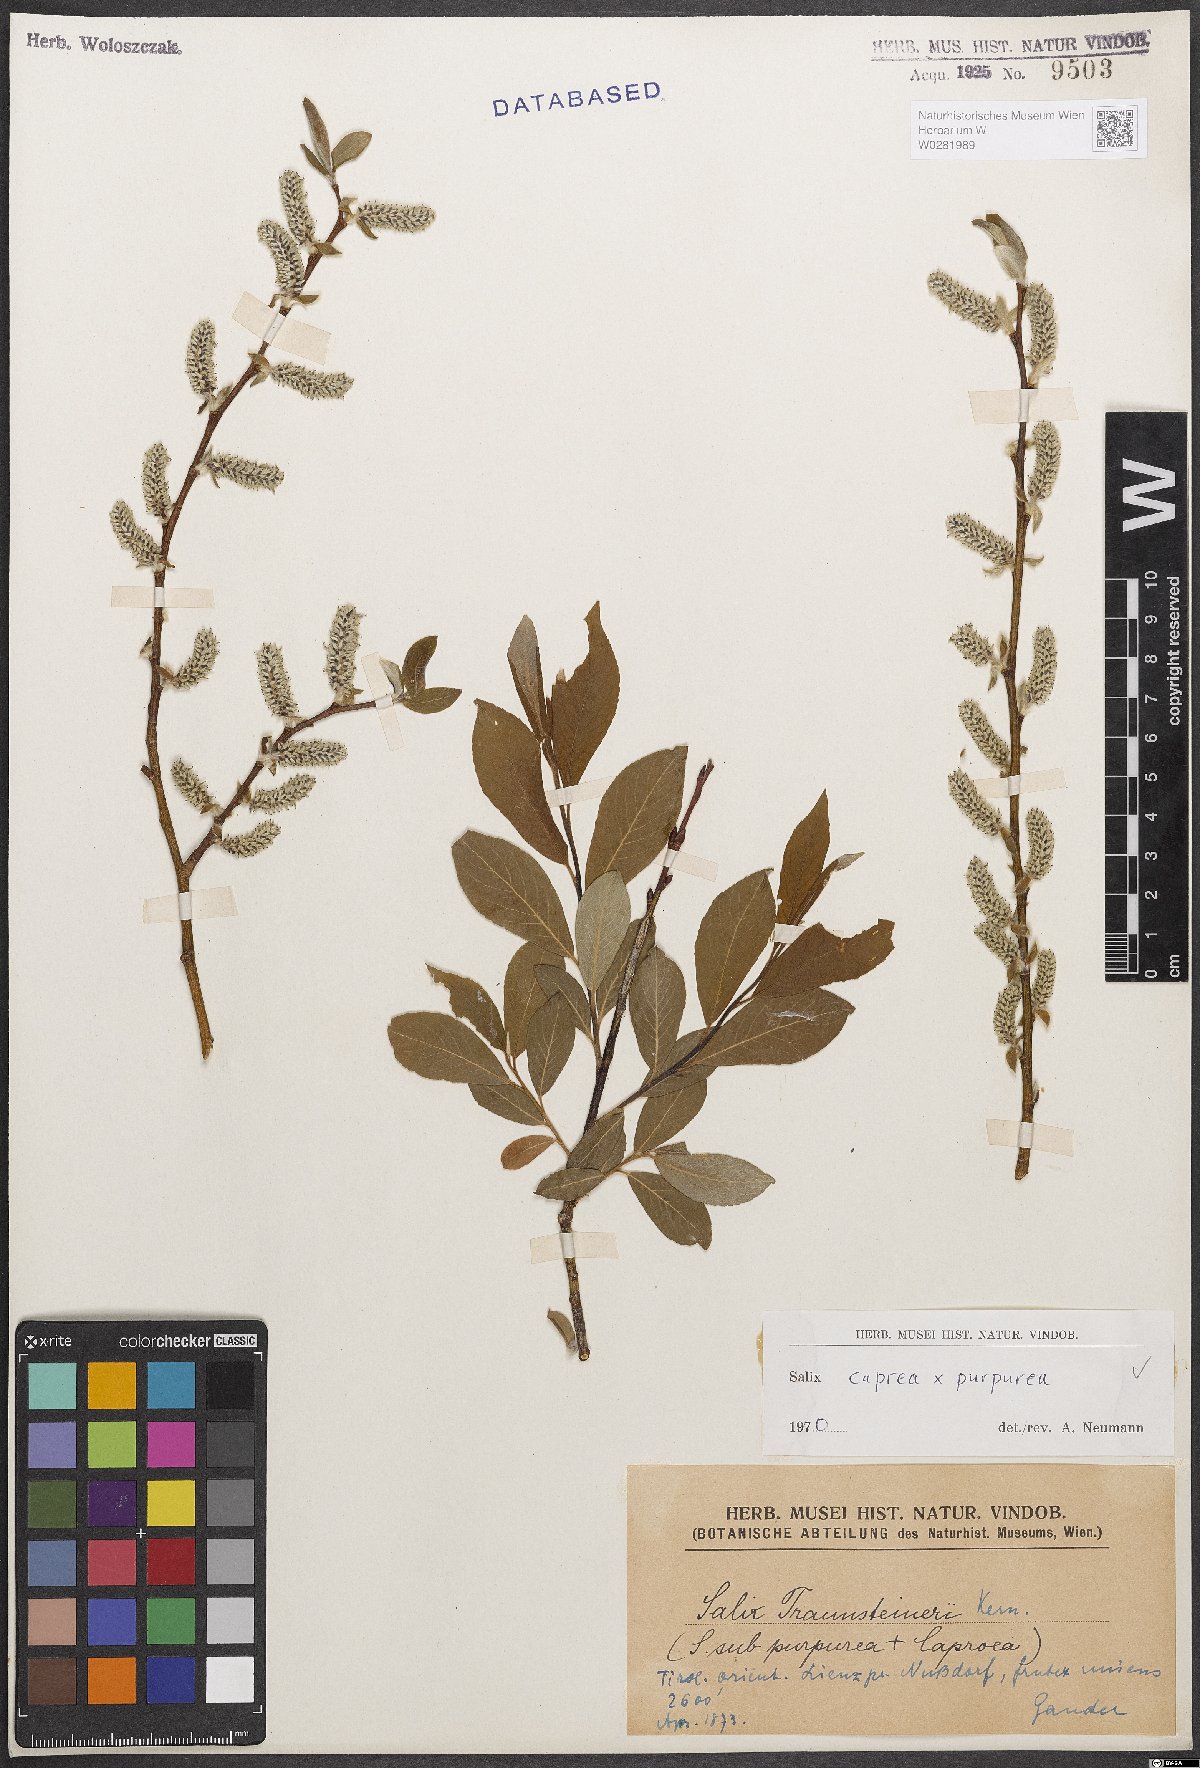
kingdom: Plantae
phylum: Tracheophyta
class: Magnoliopsida
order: Malpighiales
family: Salicaceae
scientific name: Salicaceae
